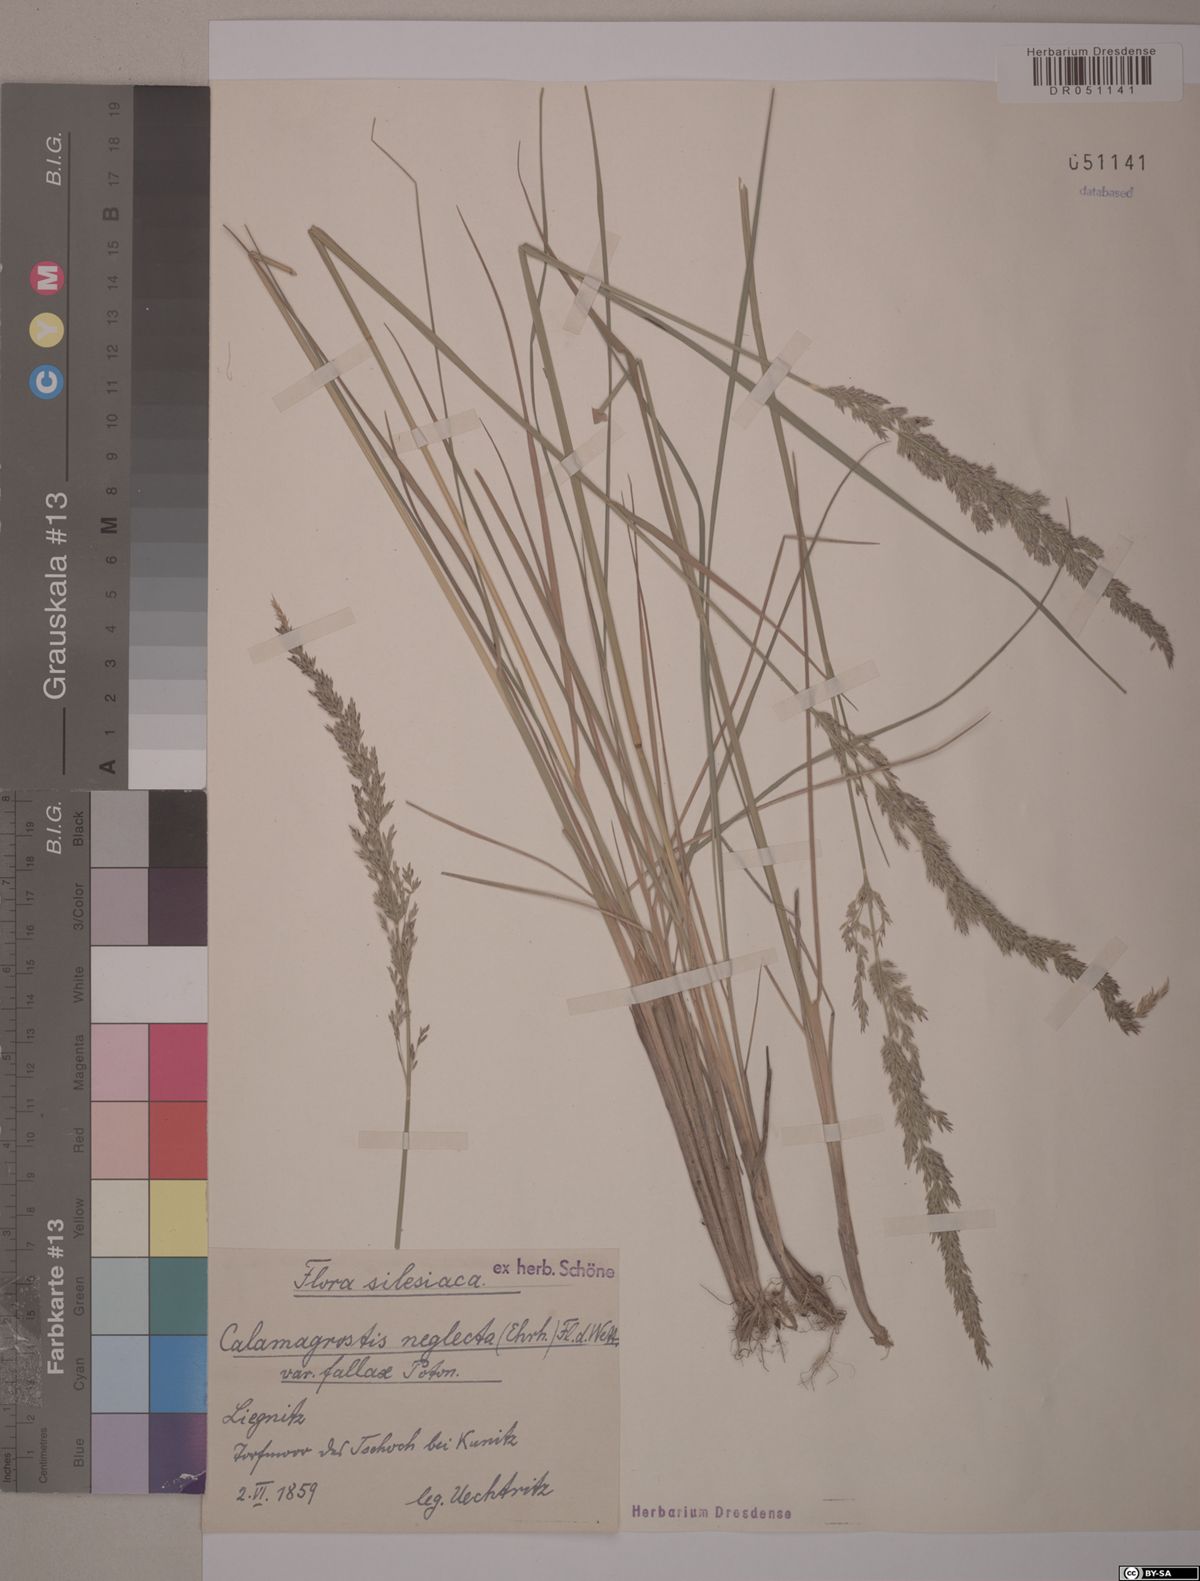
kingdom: Plantae
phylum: Tracheophyta
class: Liliopsida
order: Poales
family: Poaceae
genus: Achnatherum
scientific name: Achnatherum calamagrostis
